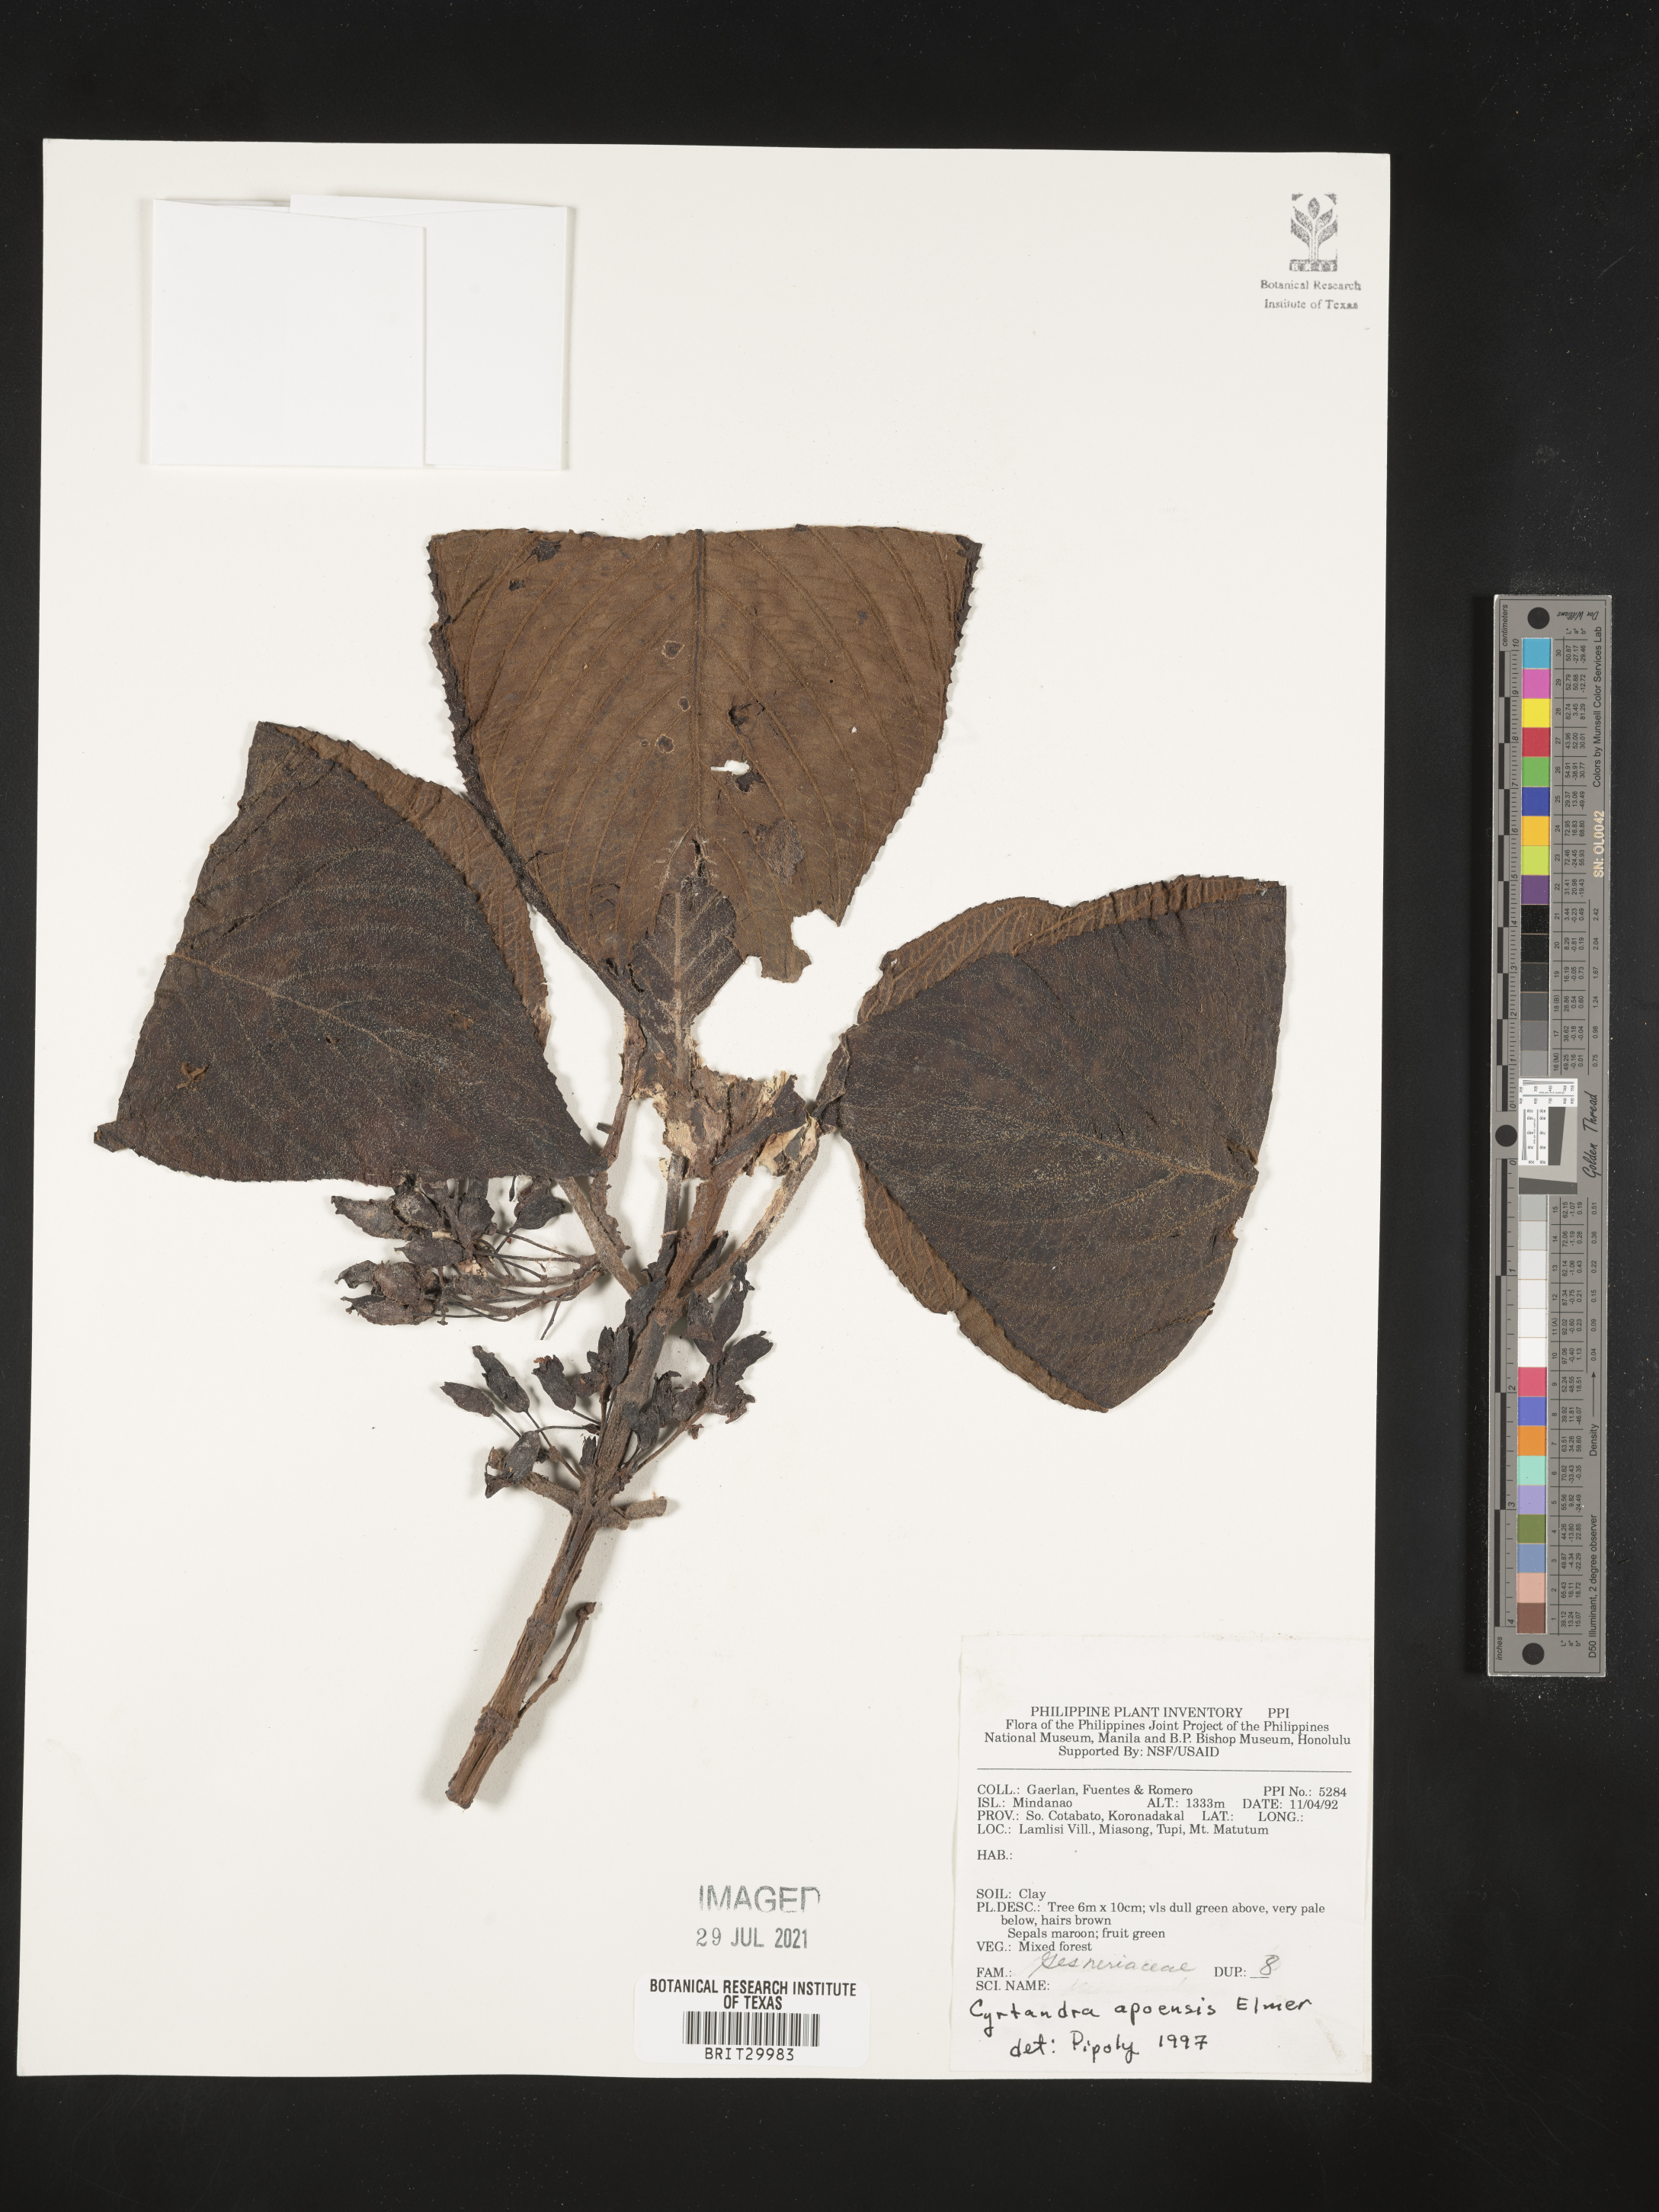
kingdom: Plantae
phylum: Tracheophyta
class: Magnoliopsida
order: Lamiales
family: Gesneriaceae
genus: Cyrtandra
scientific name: Cyrtandra apoensis
